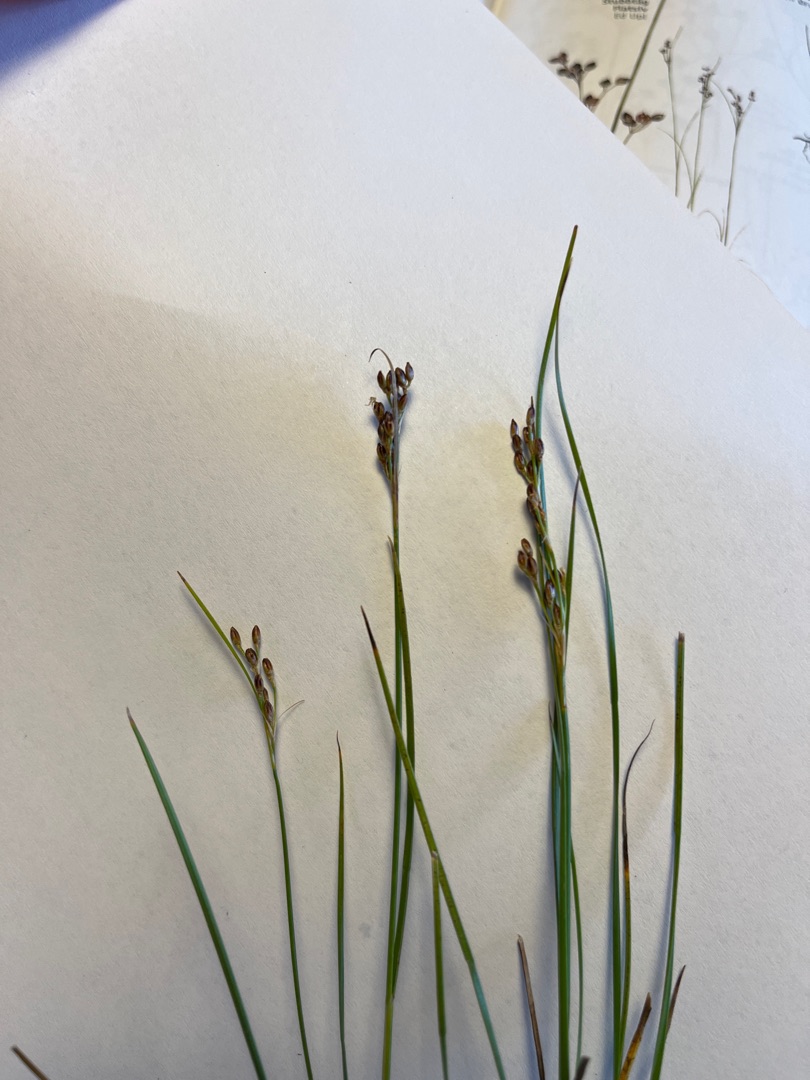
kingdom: Plantae
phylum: Tracheophyta
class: Liliopsida
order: Poales
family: Juncaceae
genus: Juncus
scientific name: Juncus gerardi
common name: Harril
